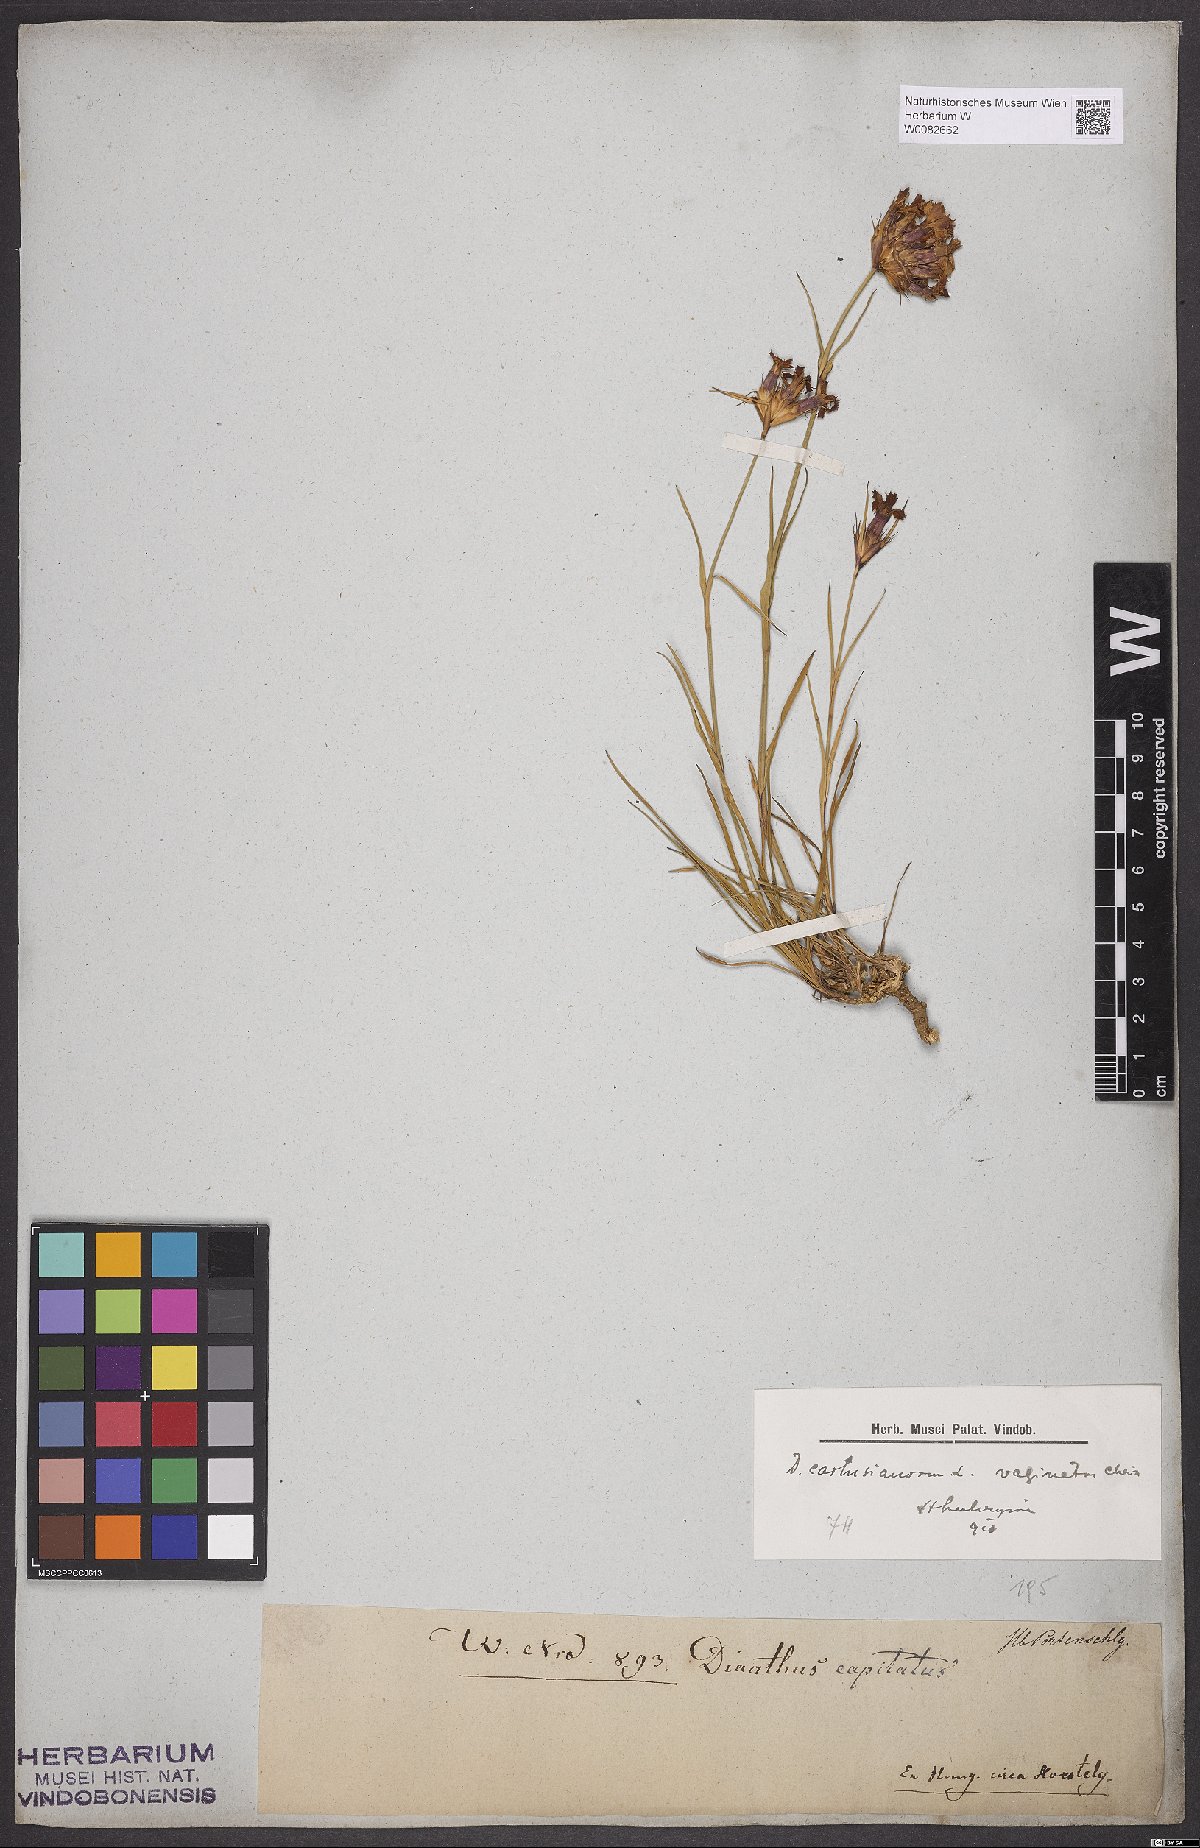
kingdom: Plantae
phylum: Tracheophyta
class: Magnoliopsida
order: Caryophyllales
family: Caryophyllaceae
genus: Dianthus
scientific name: Dianthus carthusianorum
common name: Carthusian pink
